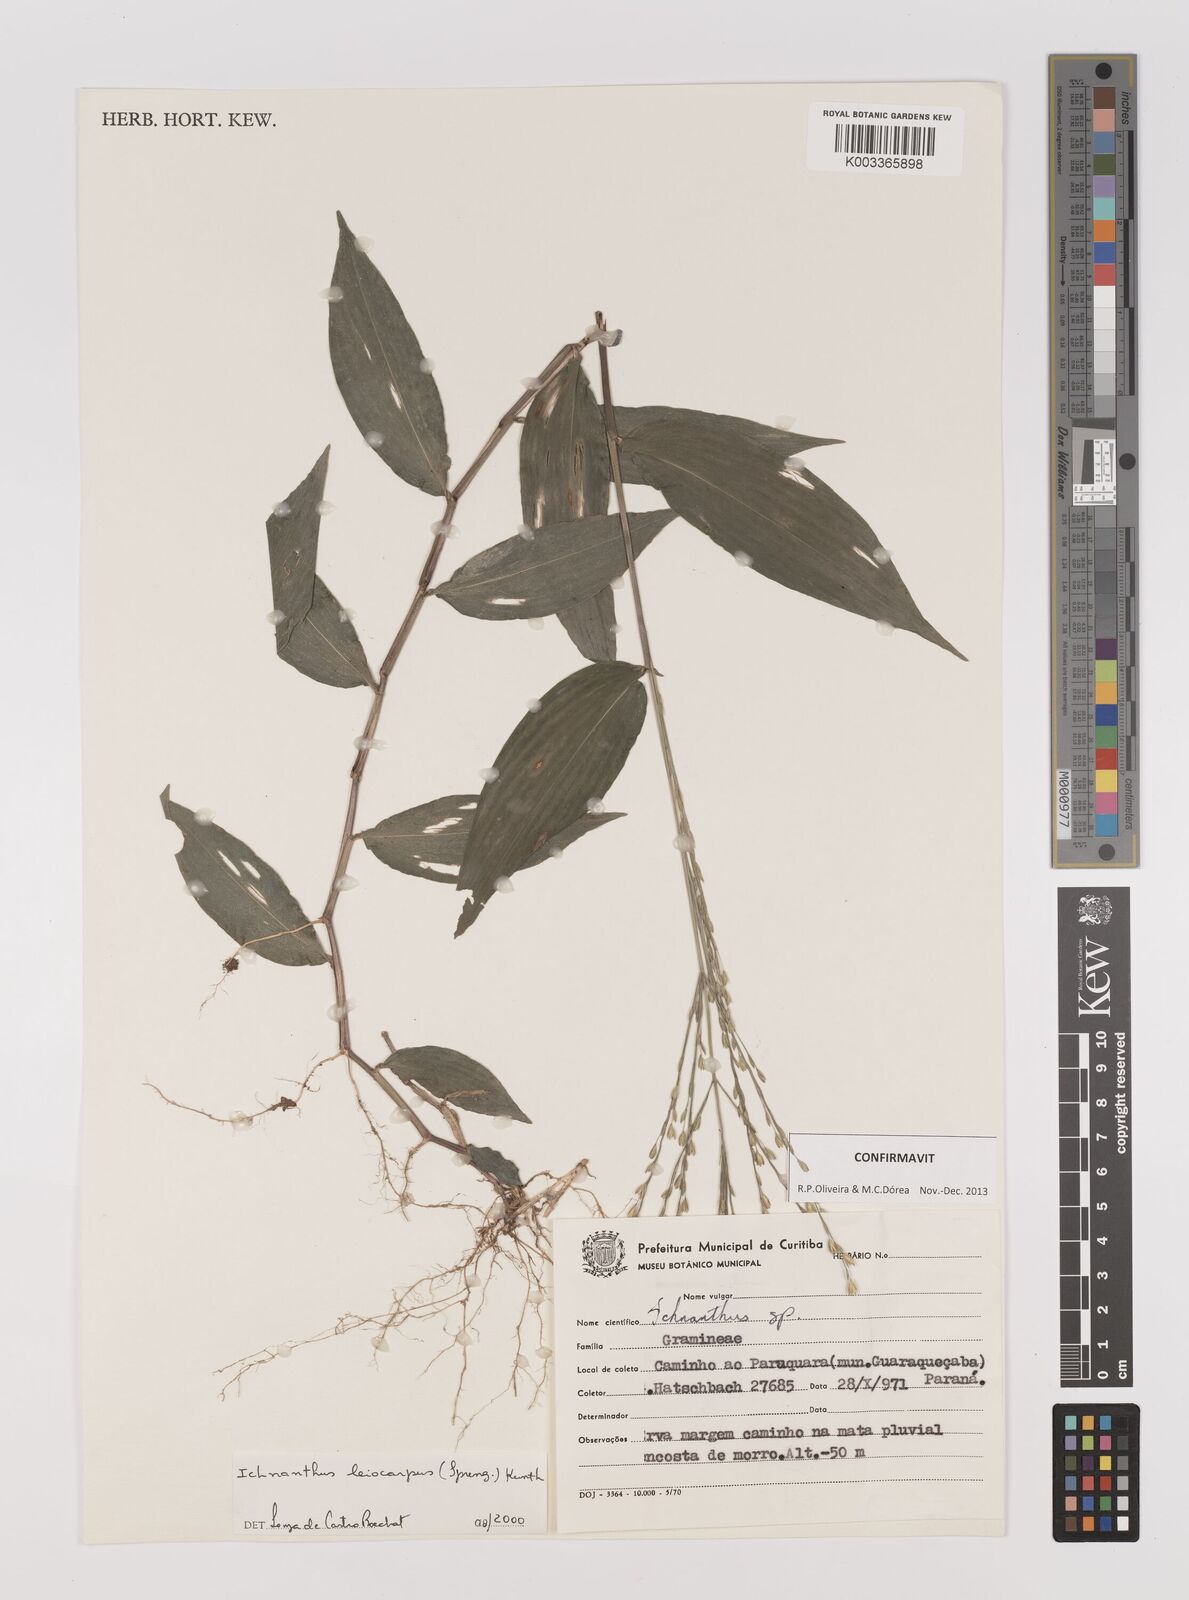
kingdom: Plantae
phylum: Tracheophyta
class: Liliopsida
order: Poales
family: Poaceae
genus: Ichnanthus
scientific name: Ichnanthus leiocarpus
